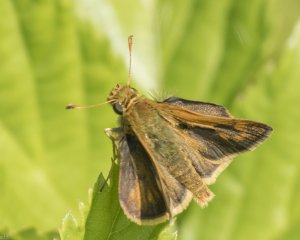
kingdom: Animalia
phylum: Arthropoda
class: Insecta
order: Lepidoptera
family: Hesperiidae
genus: Polites
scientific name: Polites themistocles
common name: Tawny-edged Skipper
